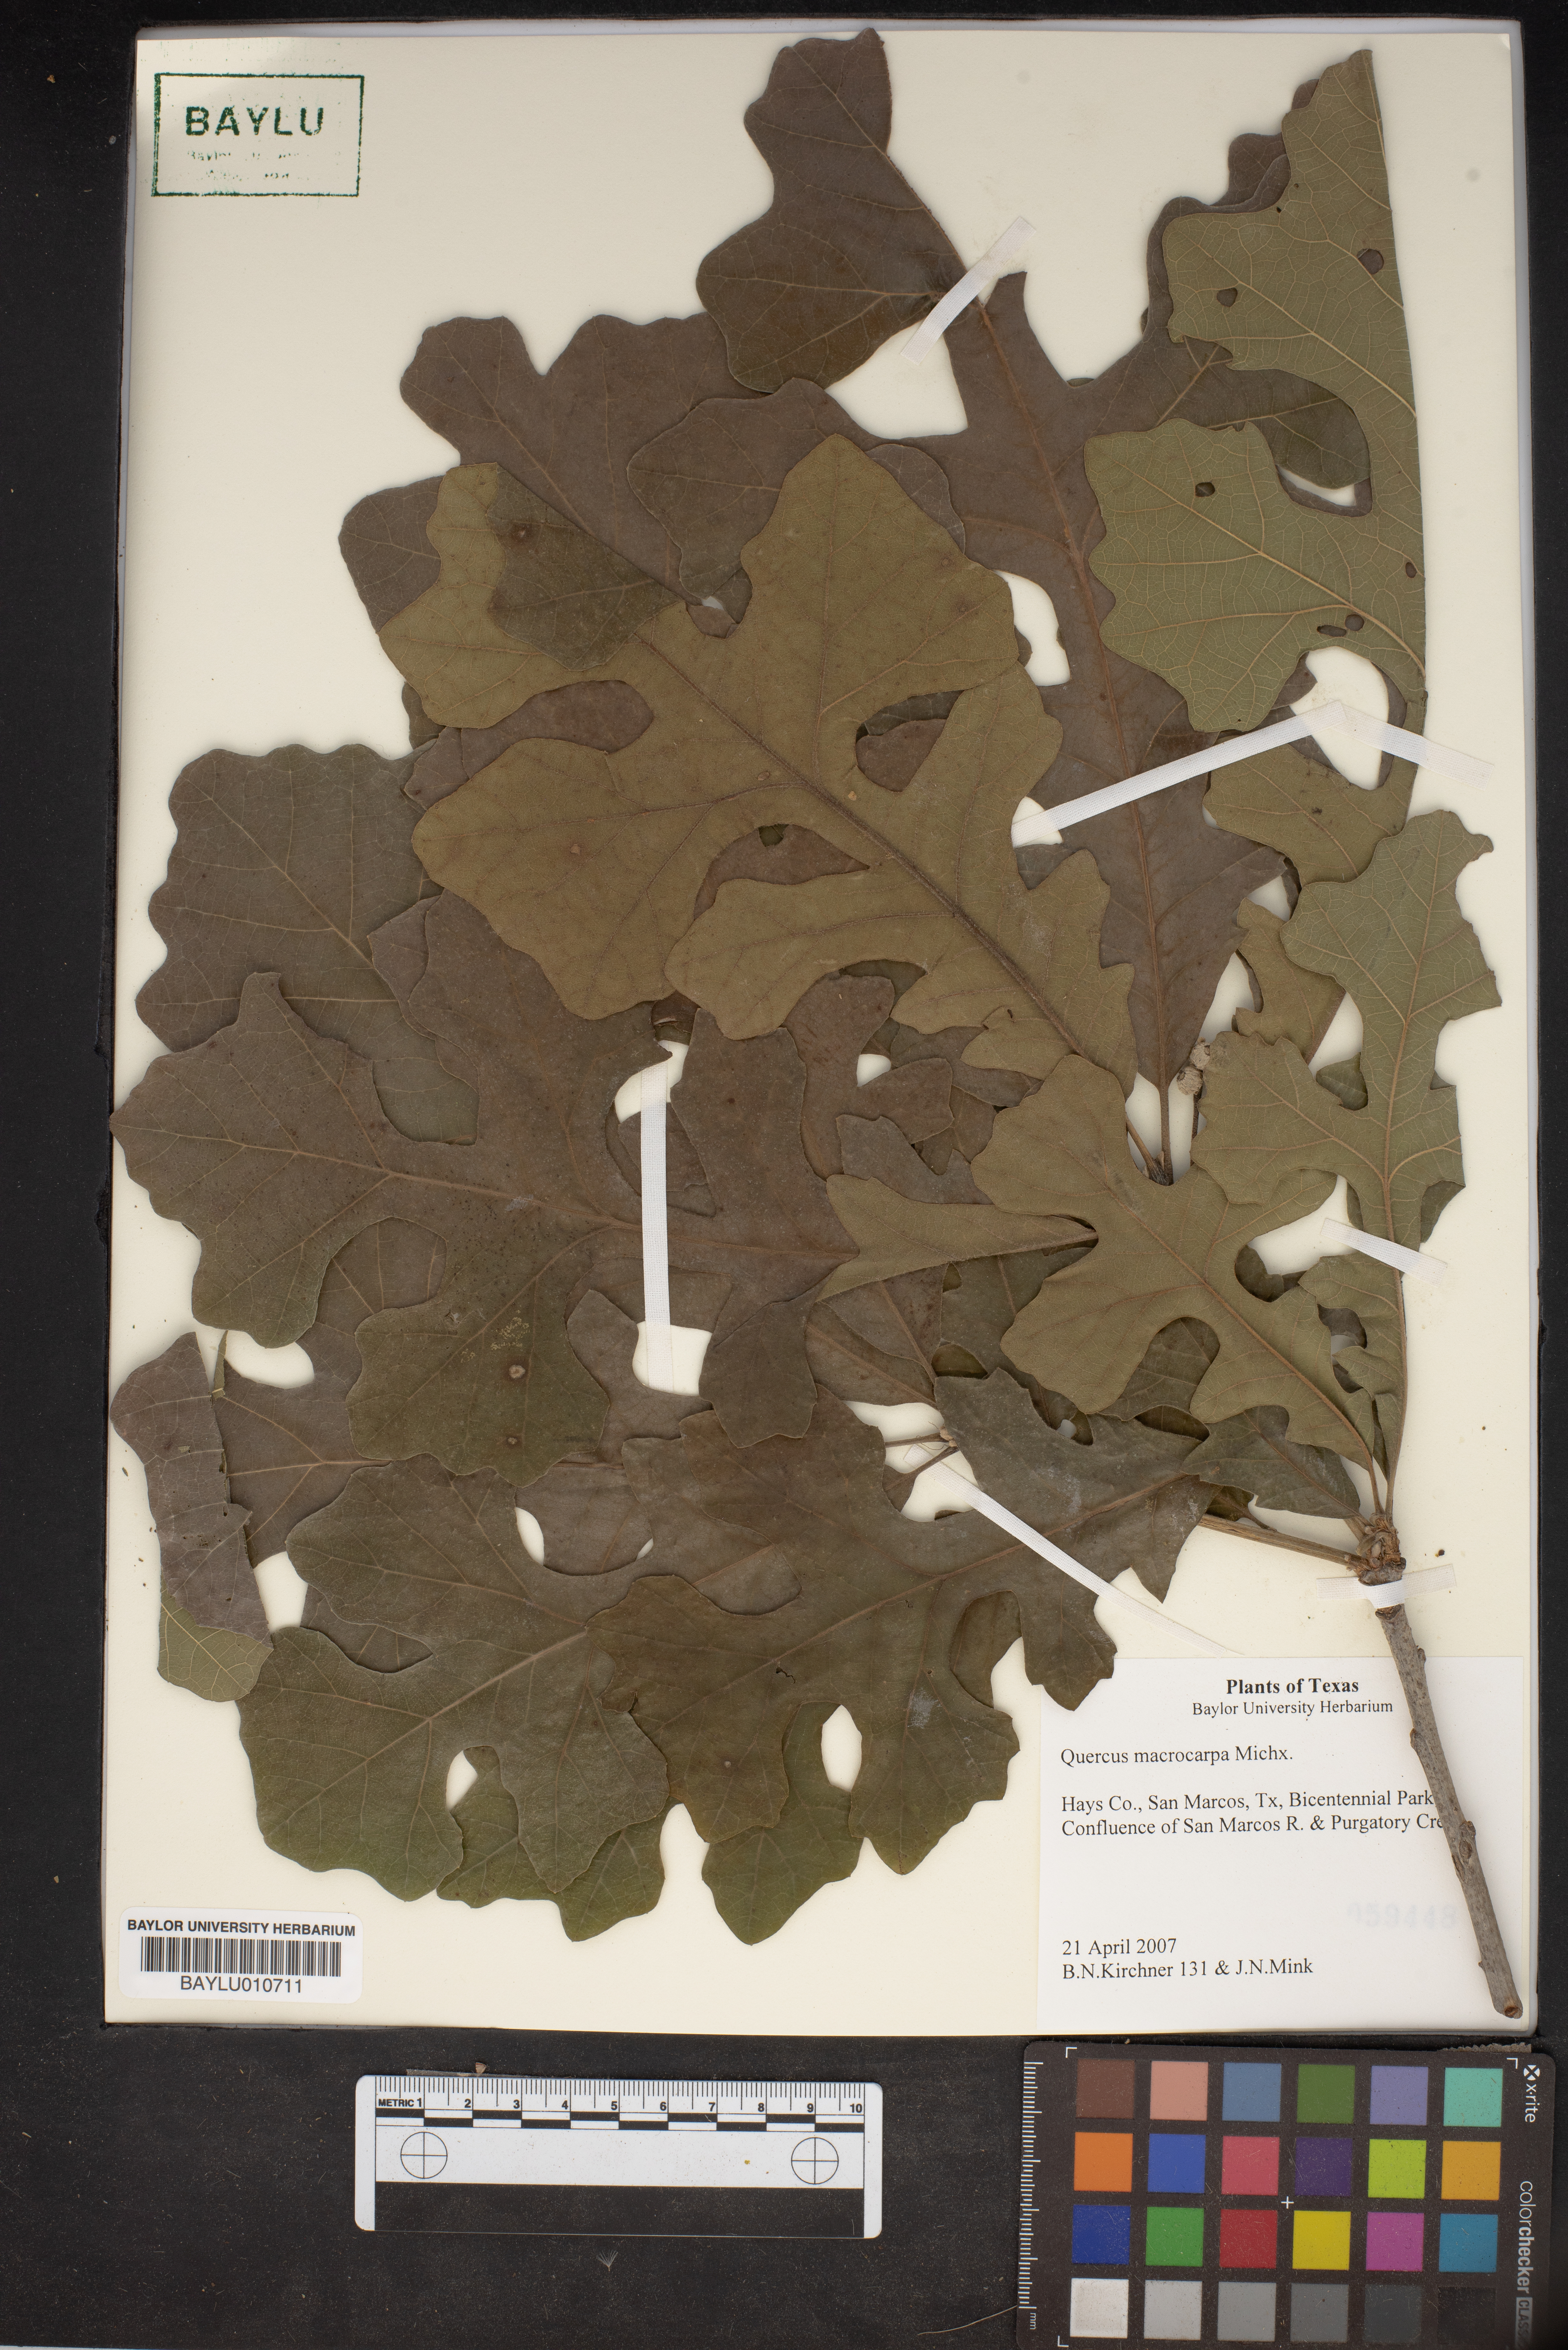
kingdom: Plantae
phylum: Tracheophyta
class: Magnoliopsida
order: Fagales
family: Fagaceae
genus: Quercus
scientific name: Quercus macrocarpa
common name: Bur oak
